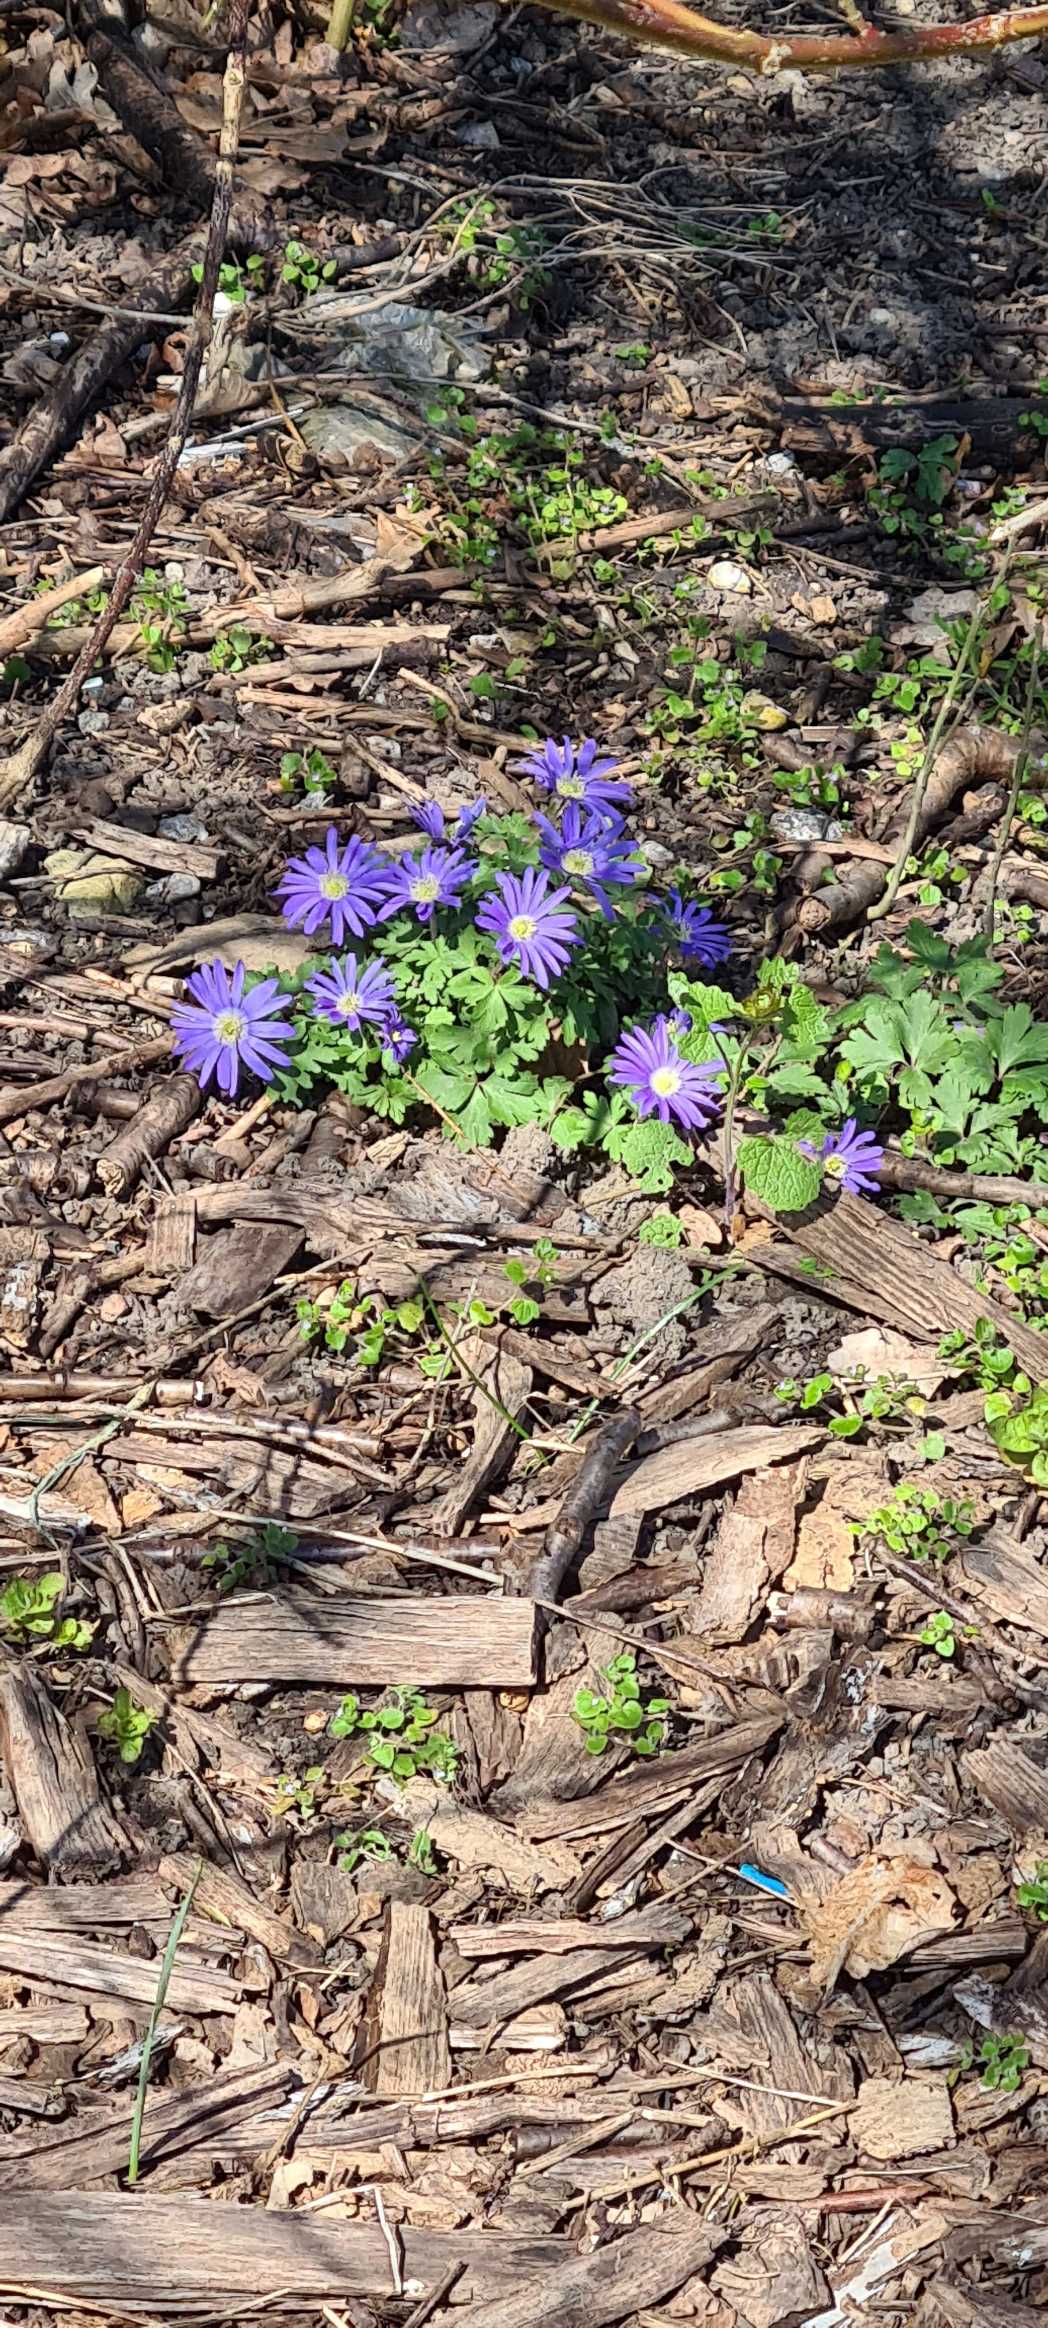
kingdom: Plantae
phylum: Tracheophyta
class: Magnoliopsida
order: Ranunculales
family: Ranunculaceae
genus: Anemone
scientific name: Anemone blanda
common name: Balkan-anemone
